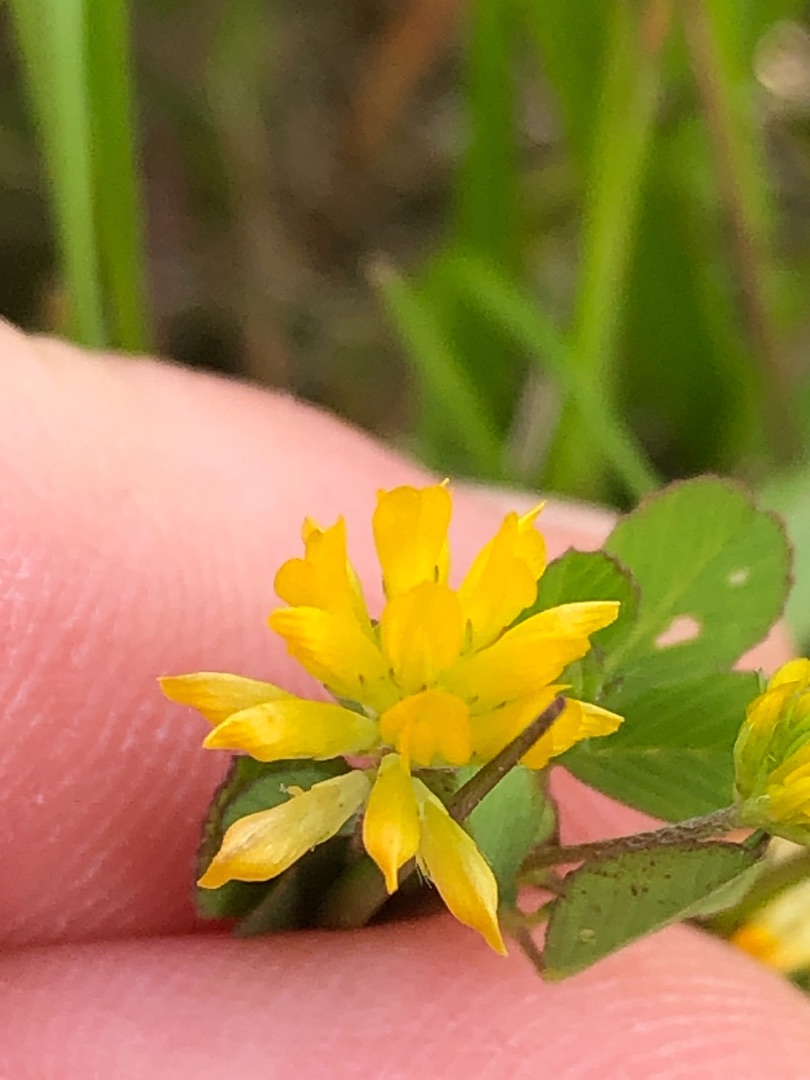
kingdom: Plantae
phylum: Tracheophyta
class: Magnoliopsida
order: Fabales
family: Fabaceae
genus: Trifolium
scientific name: Trifolium dubium
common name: Fin kløver
